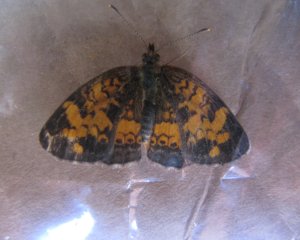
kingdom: Animalia
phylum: Arthropoda
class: Insecta
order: Lepidoptera
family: Nymphalidae
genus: Phyciodes
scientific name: Phyciodes tharos
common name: Northern Crescent
